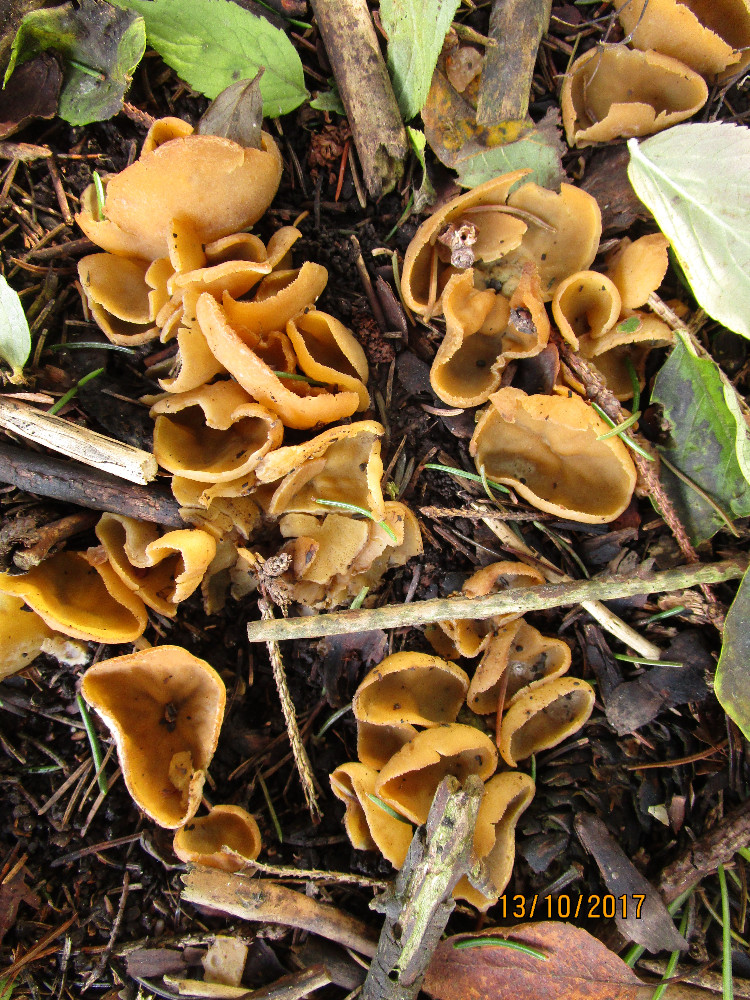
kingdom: Fungi
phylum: Ascomycota
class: Pezizomycetes
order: Pezizales
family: Pyronemataceae
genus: Sowerbyella
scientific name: Sowerbyella
